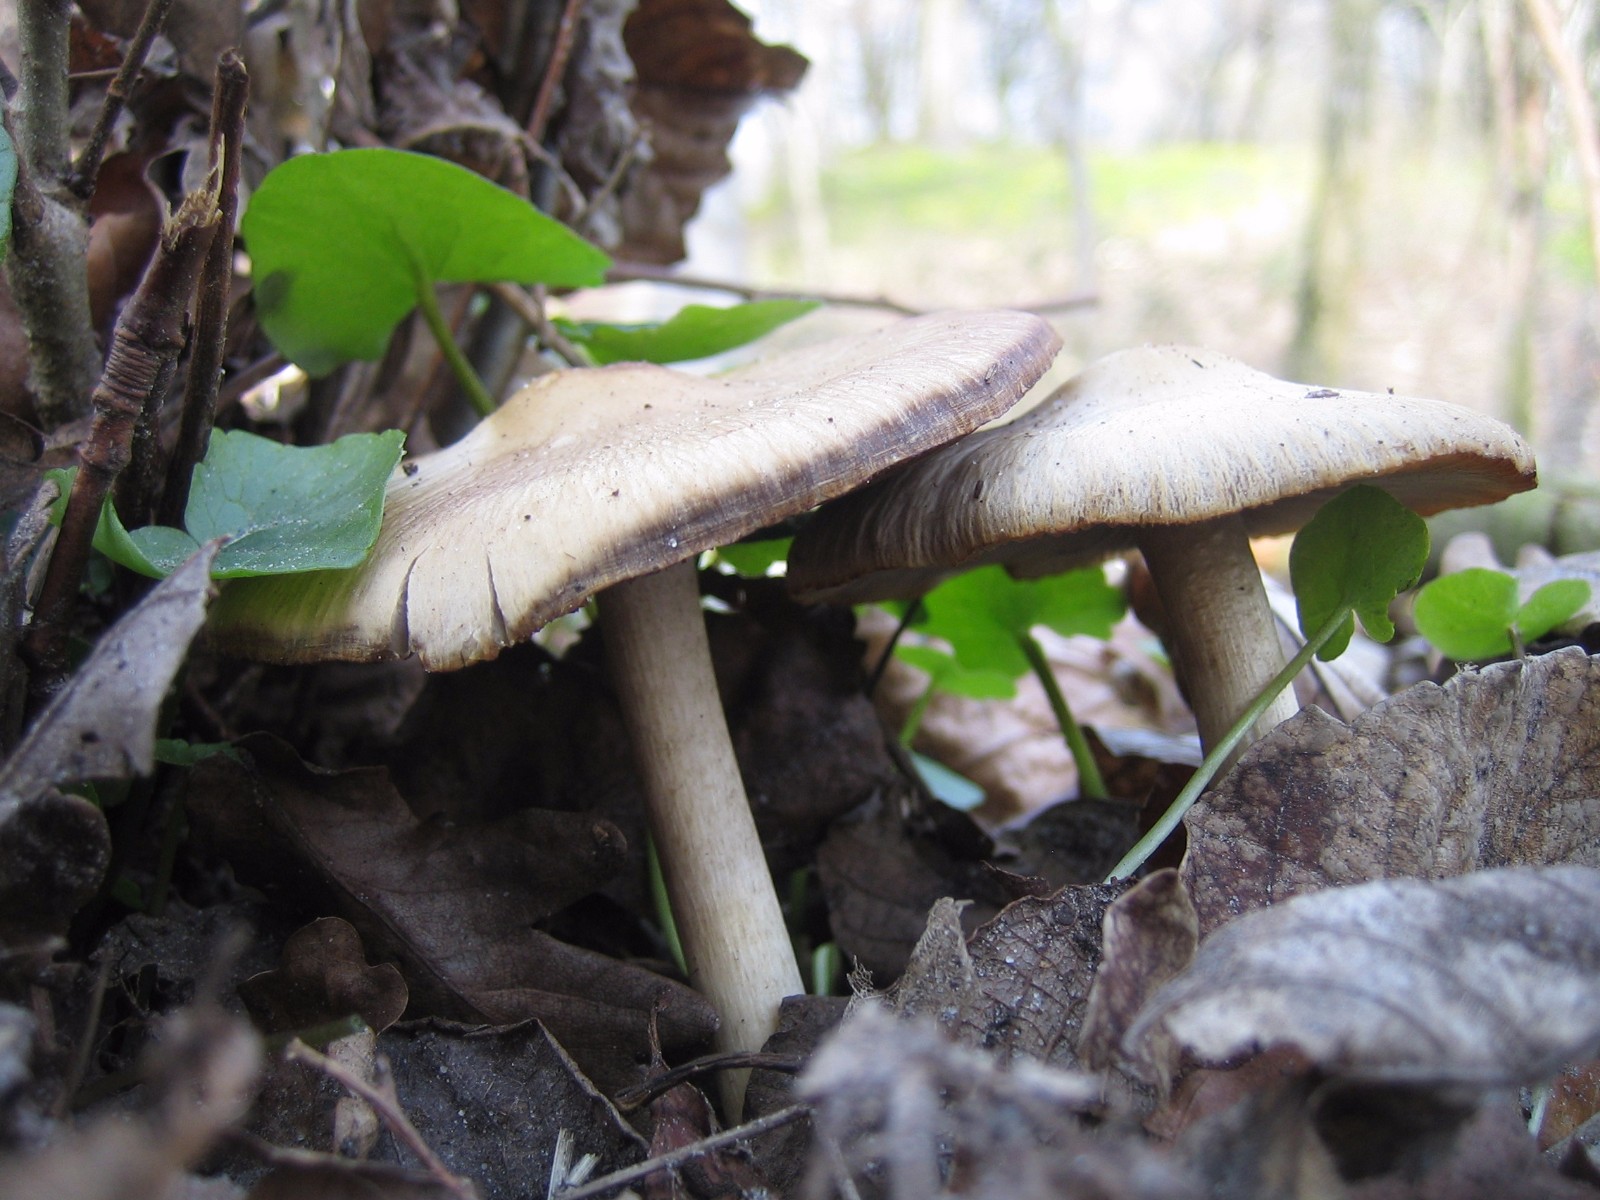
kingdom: Fungi
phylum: Basidiomycota
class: Agaricomycetes
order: Agaricales
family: Psathyrellaceae
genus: Psathyrella
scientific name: Psathyrella
